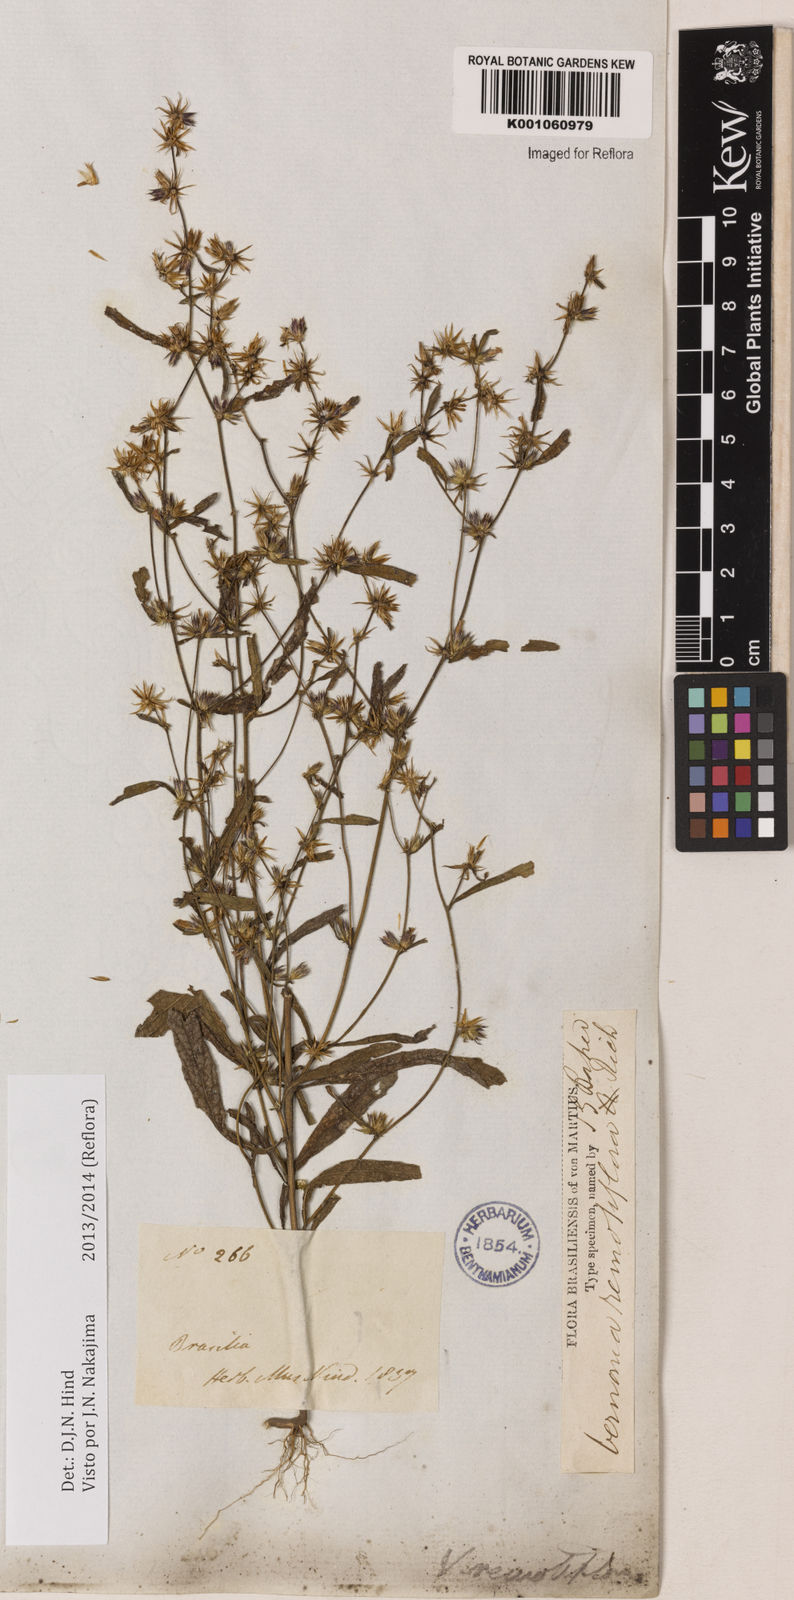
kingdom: Plantae
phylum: Tracheophyta
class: Magnoliopsida
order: Asterales
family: Asteraceae
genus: Lepidaploa
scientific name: Lepidaploa remotiflora
